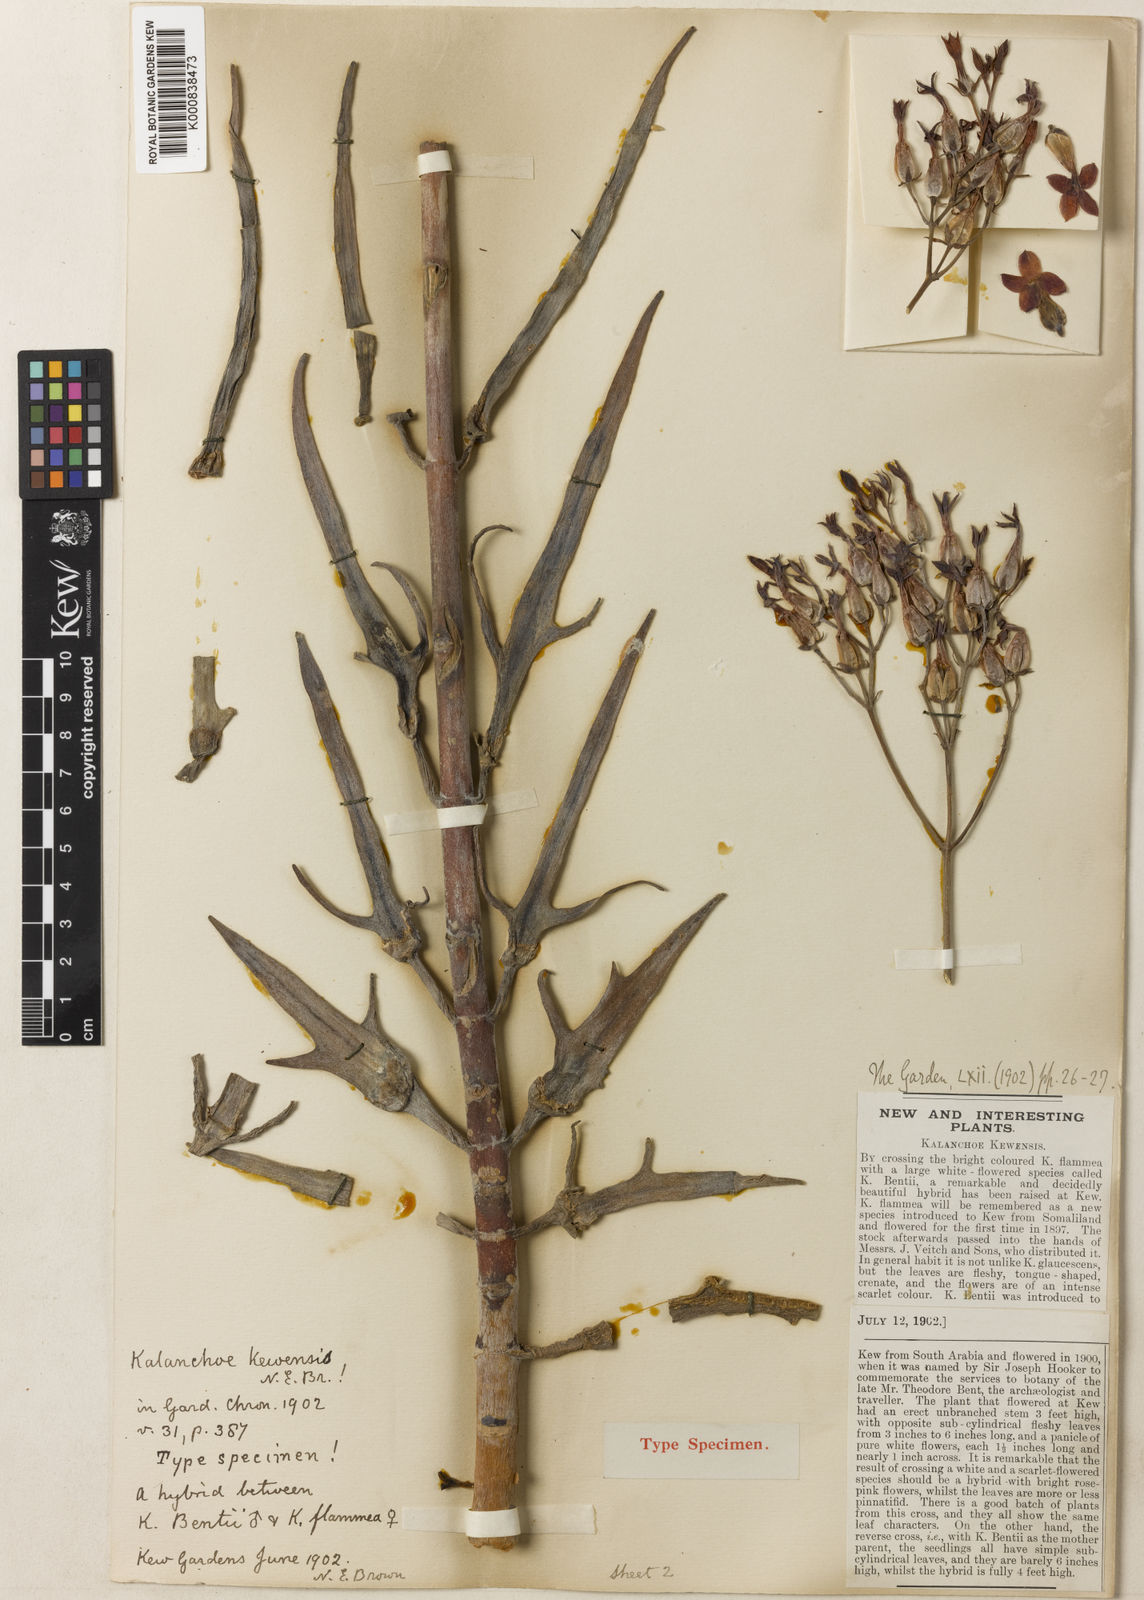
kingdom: Plantae
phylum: Tracheophyta
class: Magnoliopsida
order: Saxifragales
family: Crassulaceae
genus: Kalanchoe
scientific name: Kalanchoe
